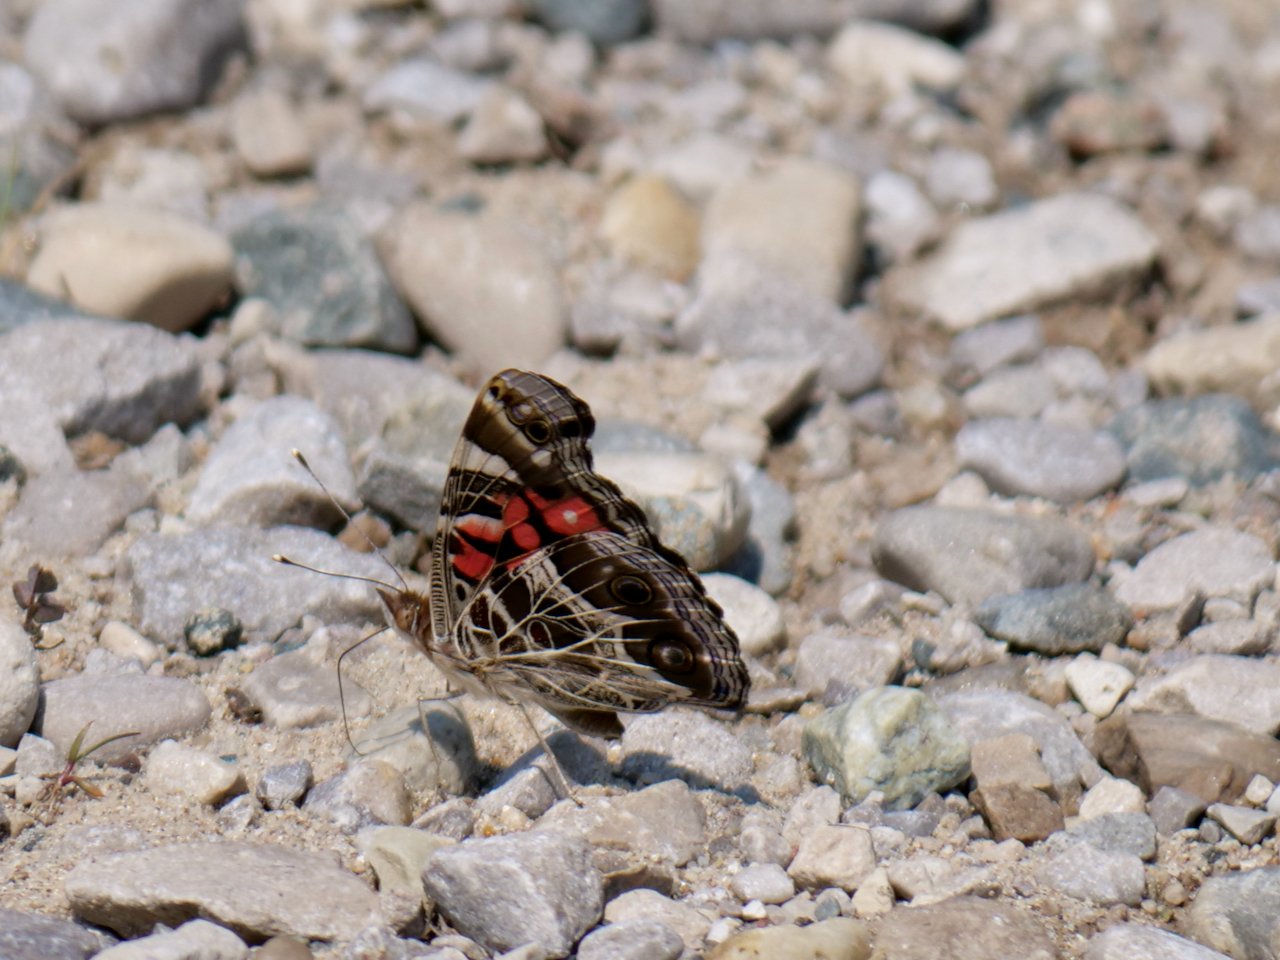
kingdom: Animalia
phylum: Arthropoda
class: Insecta
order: Lepidoptera
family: Nymphalidae
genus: Vanessa
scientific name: Vanessa virginiensis
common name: American Lady
